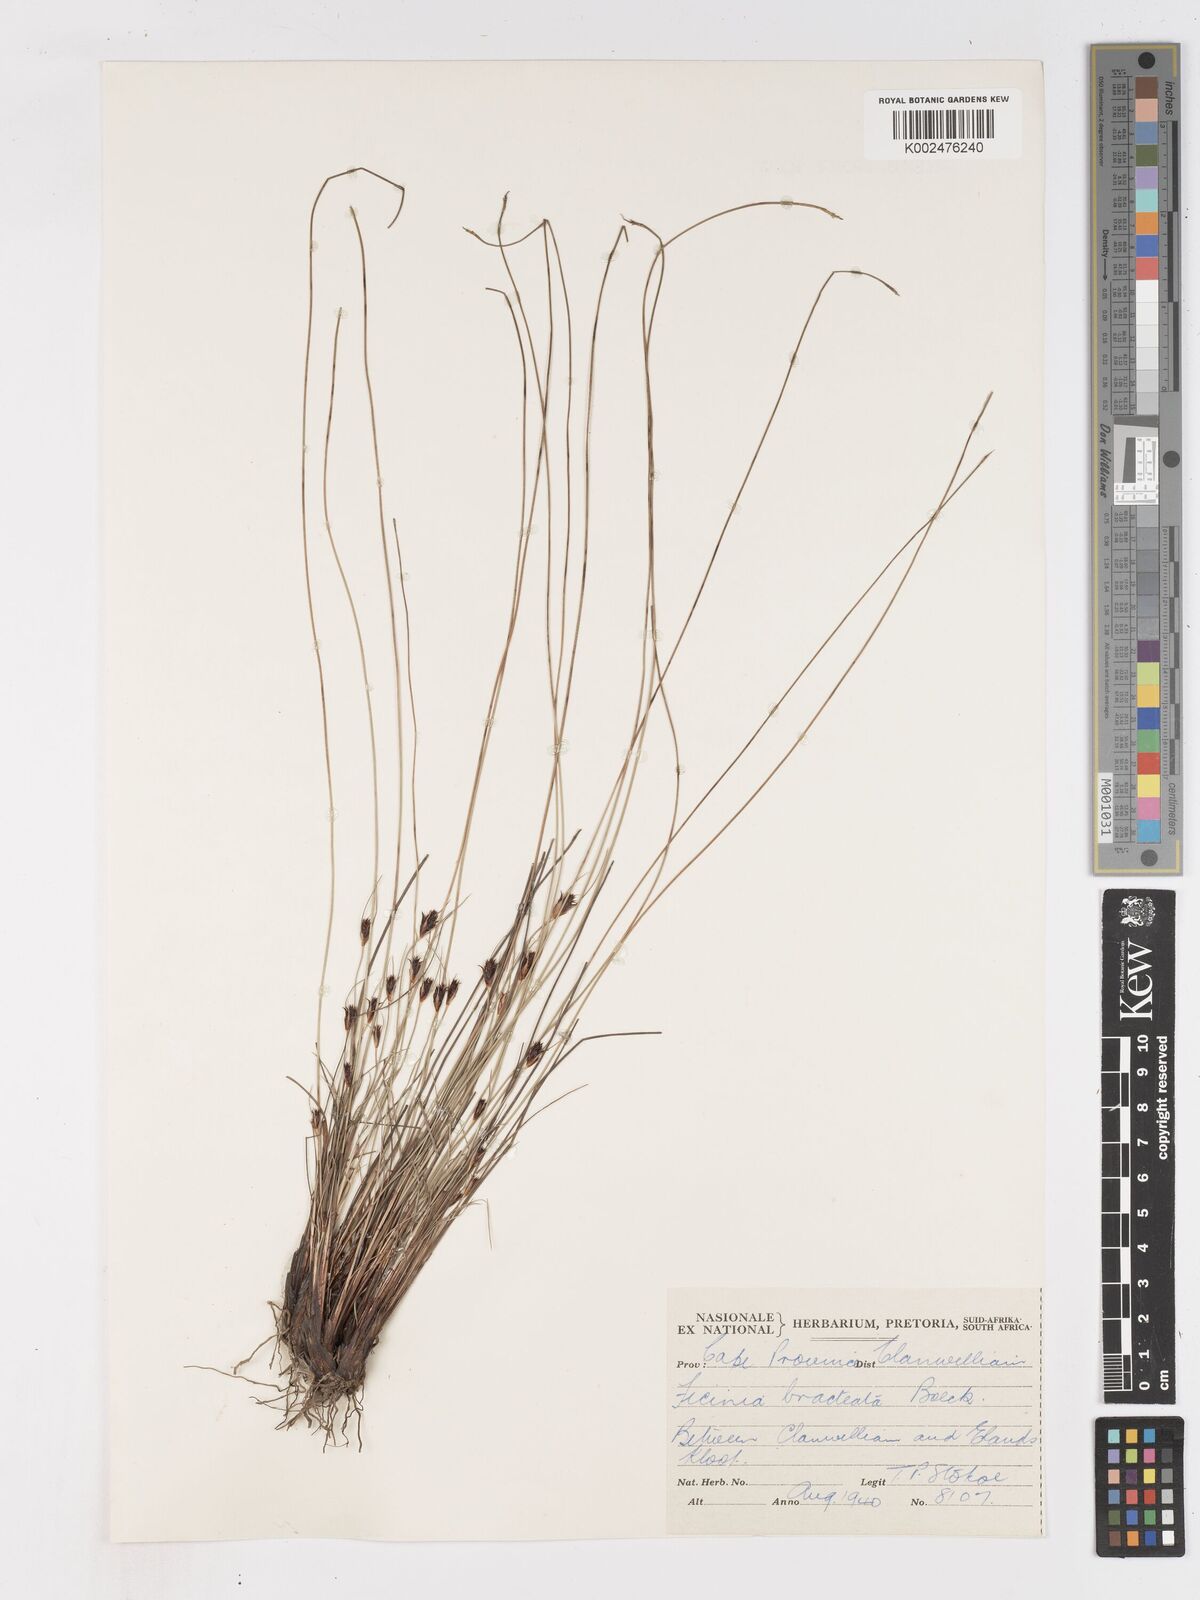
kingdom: Plantae
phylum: Tracheophyta
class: Liliopsida
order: Poales
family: Cyperaceae
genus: Ficinia
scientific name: Ficinia nigrescens
